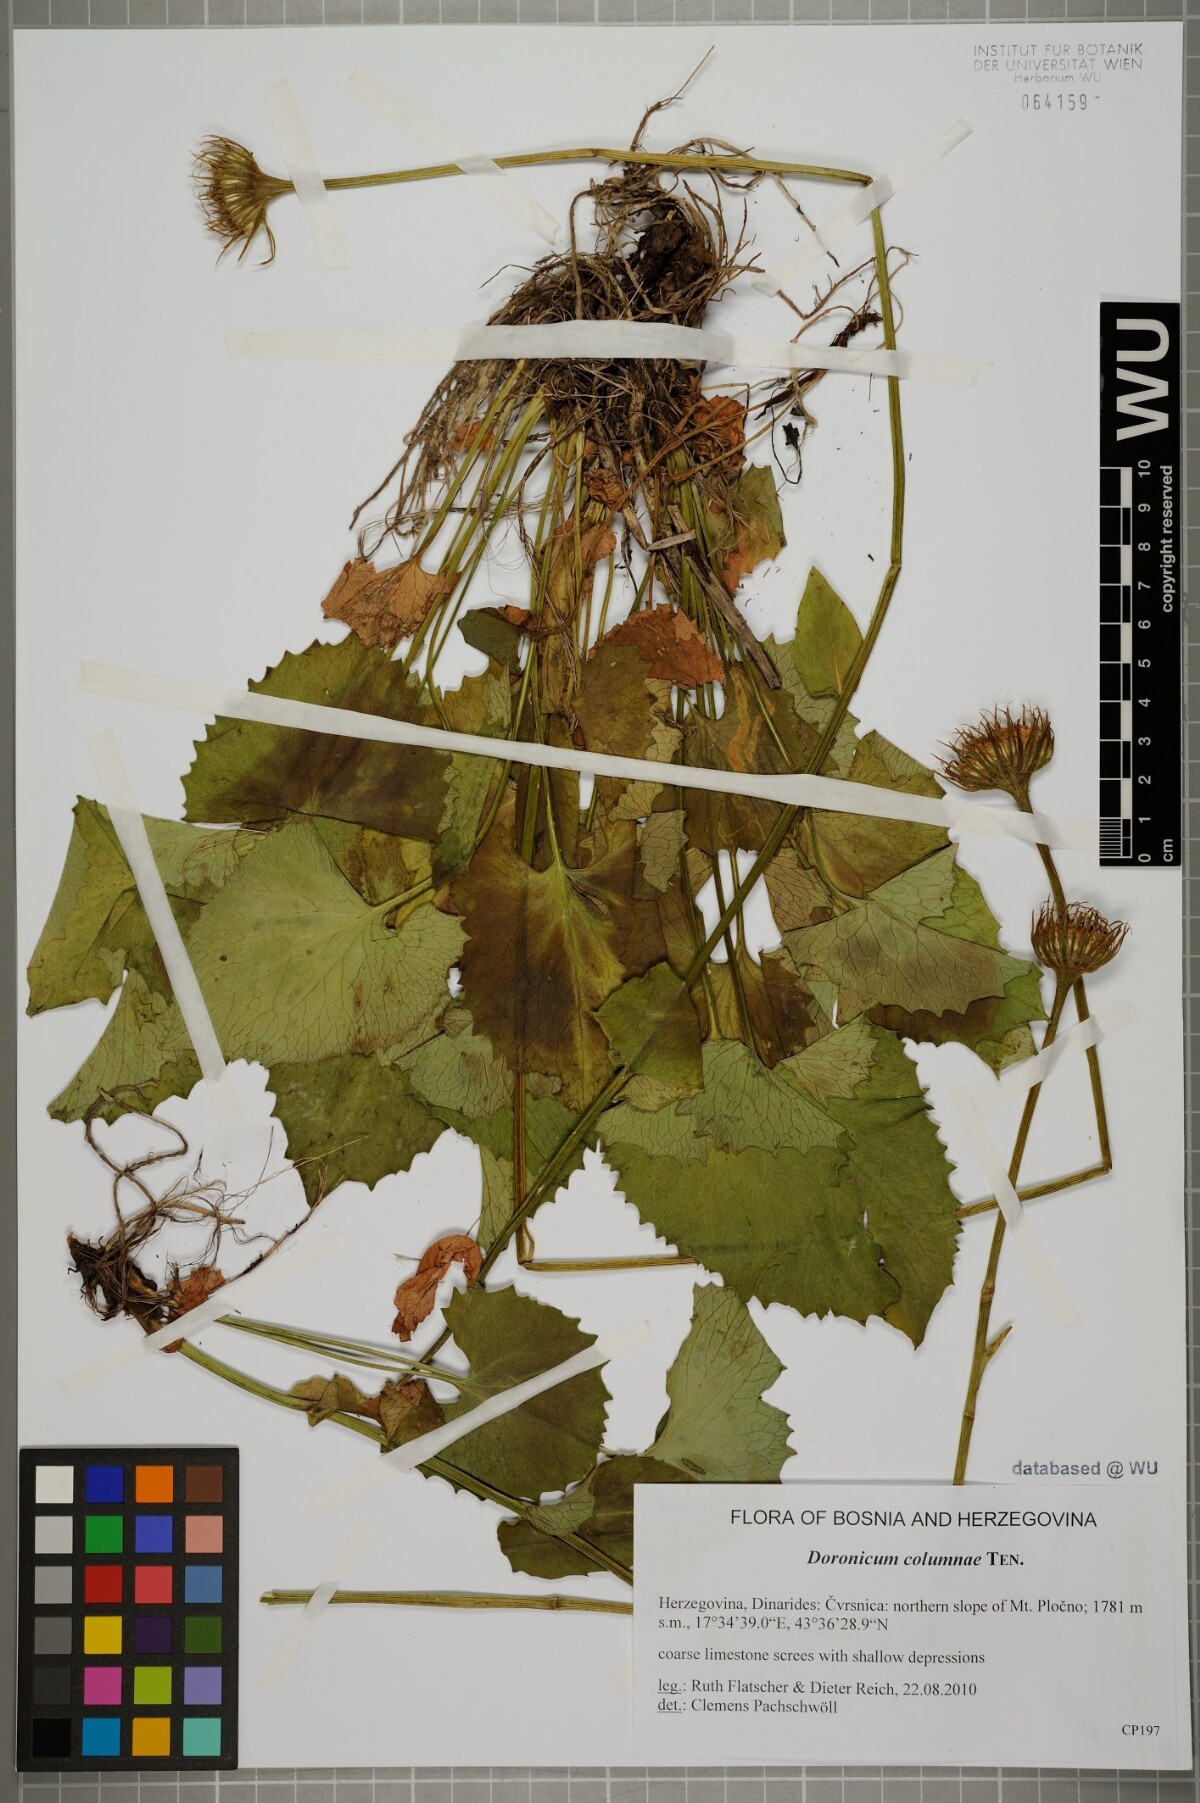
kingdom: Plantae
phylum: Tracheophyta
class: Magnoliopsida
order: Asterales
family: Asteraceae
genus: Doronicum
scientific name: Doronicum columnae
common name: Eastern leopard's-bane
